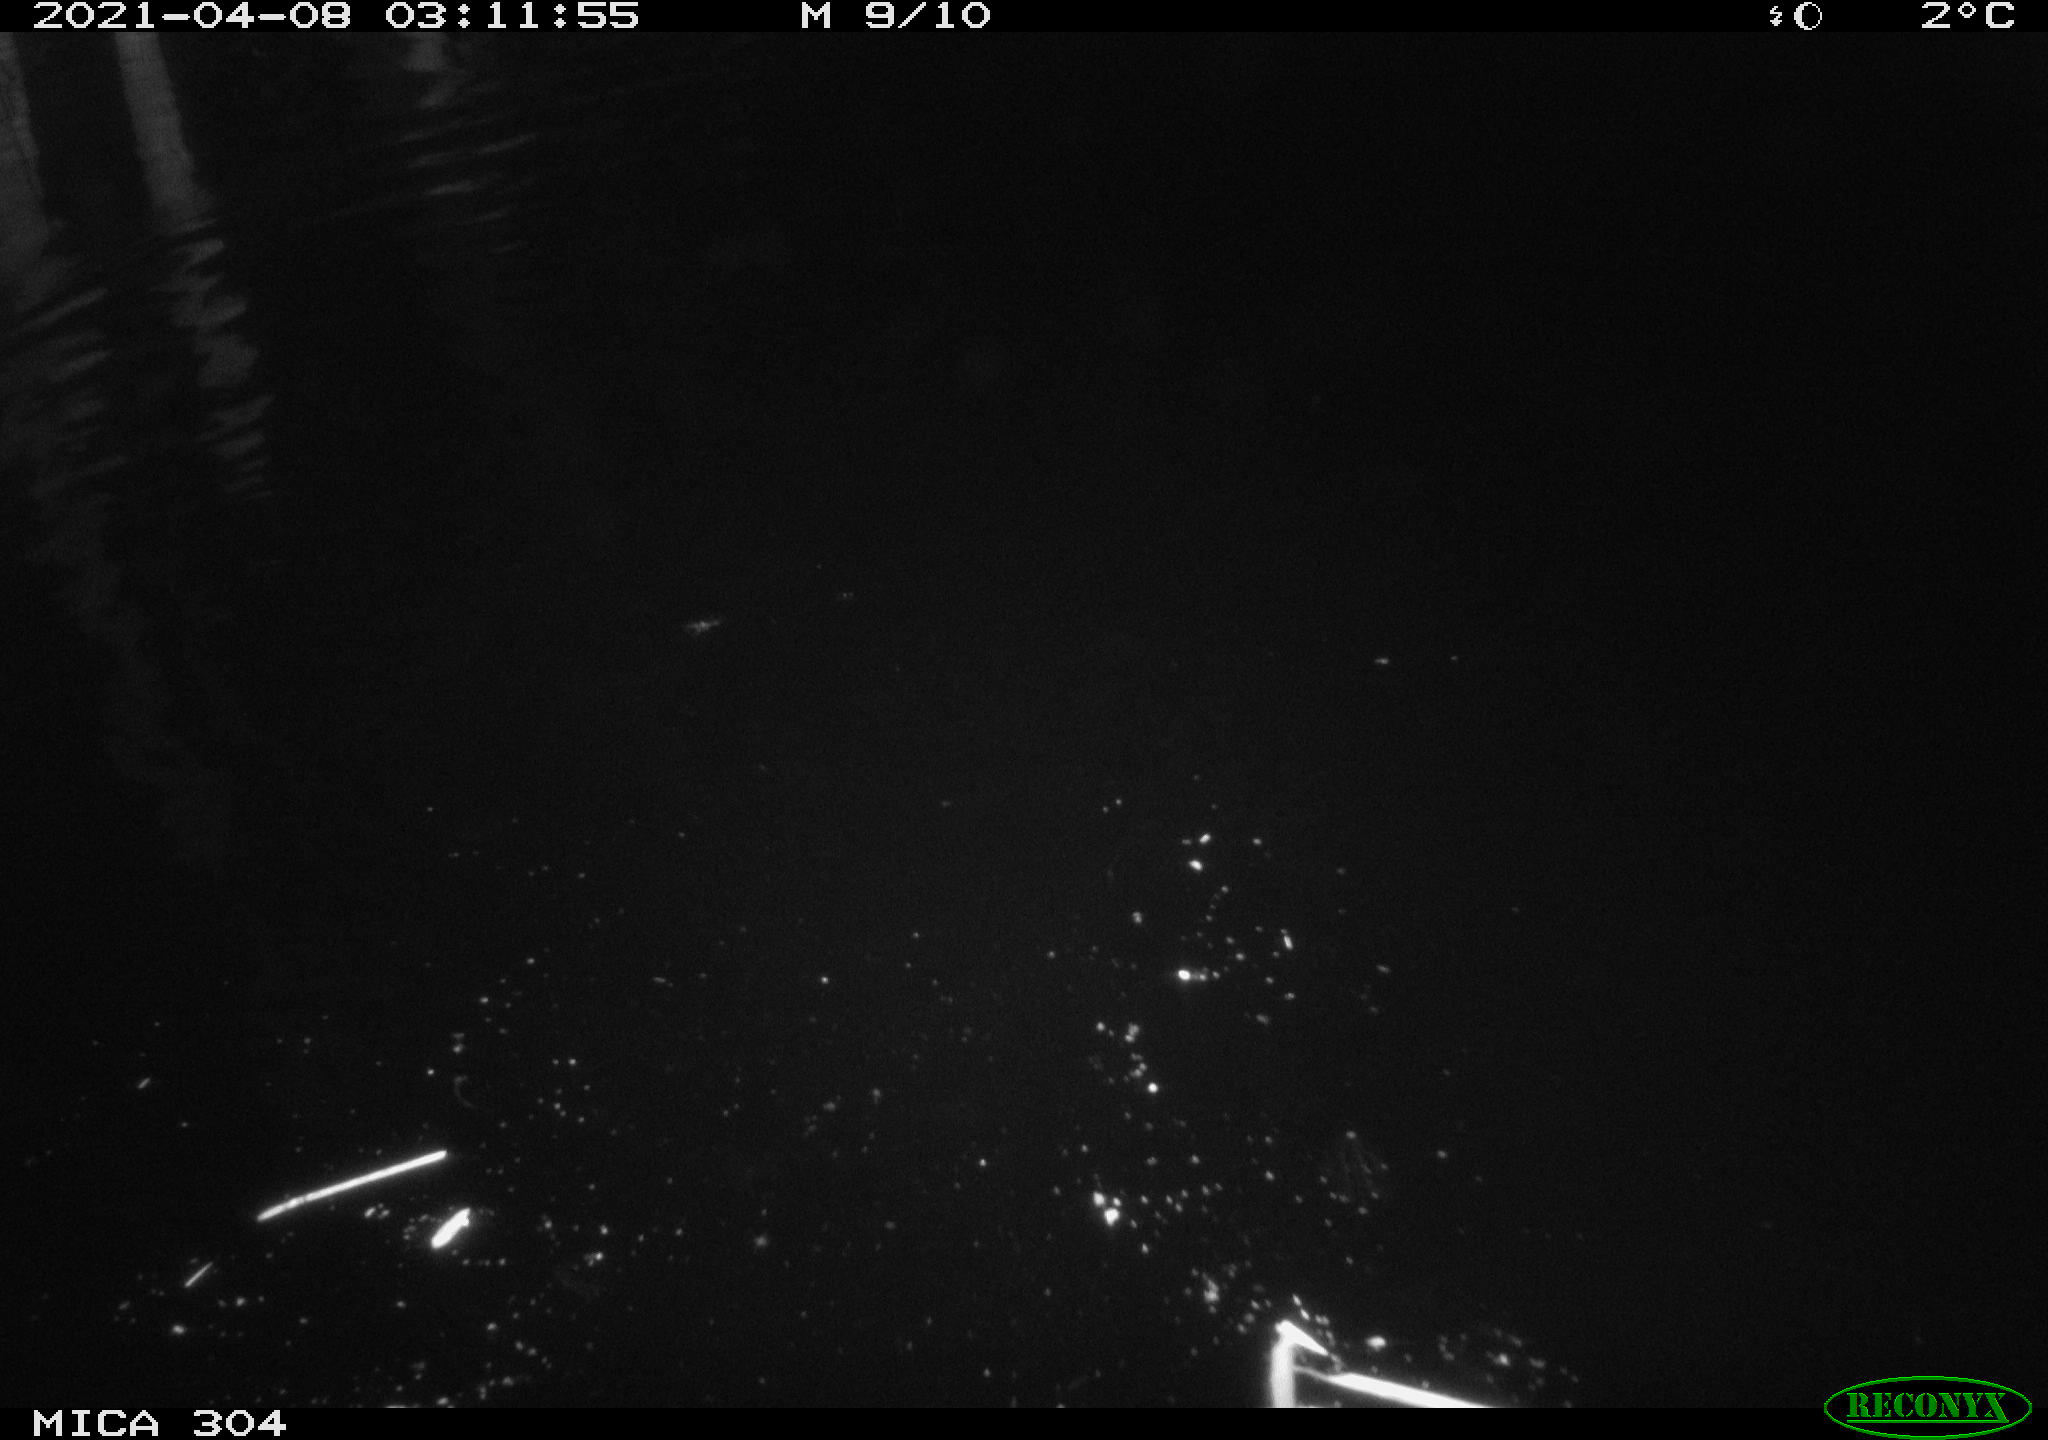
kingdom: Animalia
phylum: Chordata
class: Aves
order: Anseriformes
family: Anatidae
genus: Anas
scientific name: Anas
